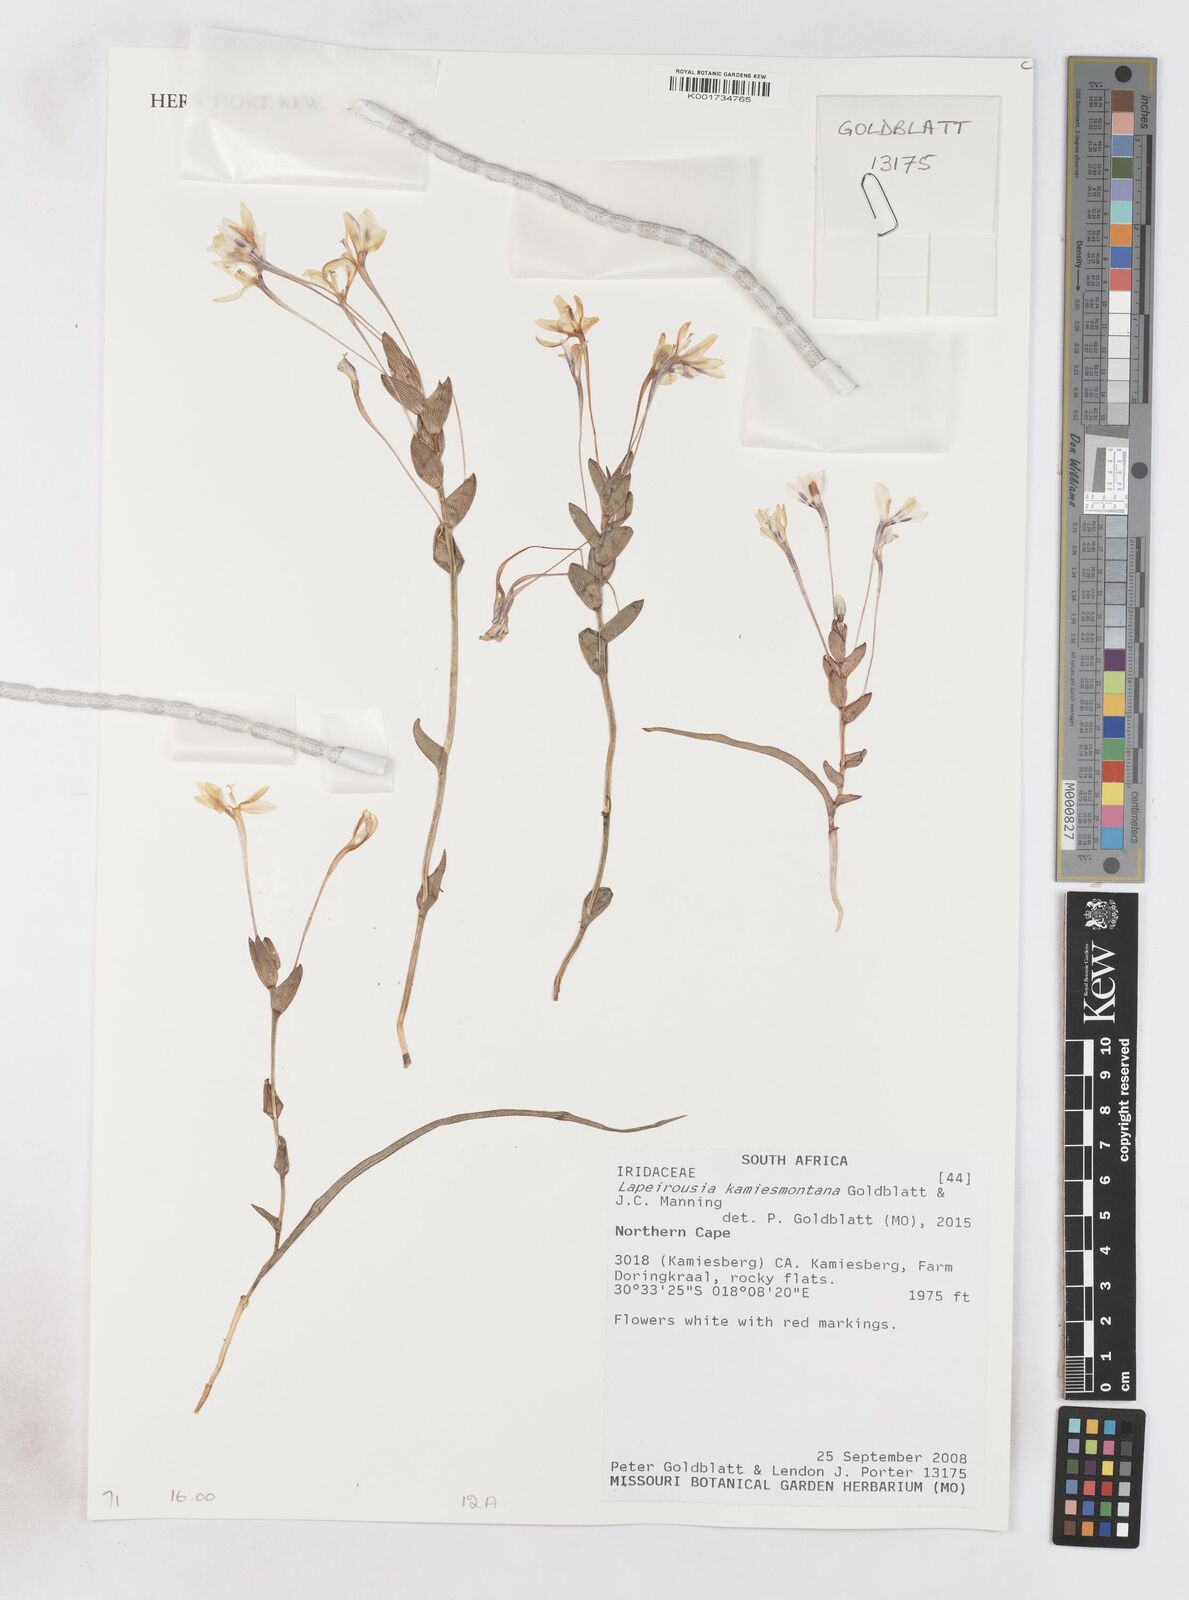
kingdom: Plantae
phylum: Tracheophyta
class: Liliopsida
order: Asparagales
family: Iridaceae
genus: Lapeirousia
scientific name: Lapeirousia kamiesmontana
